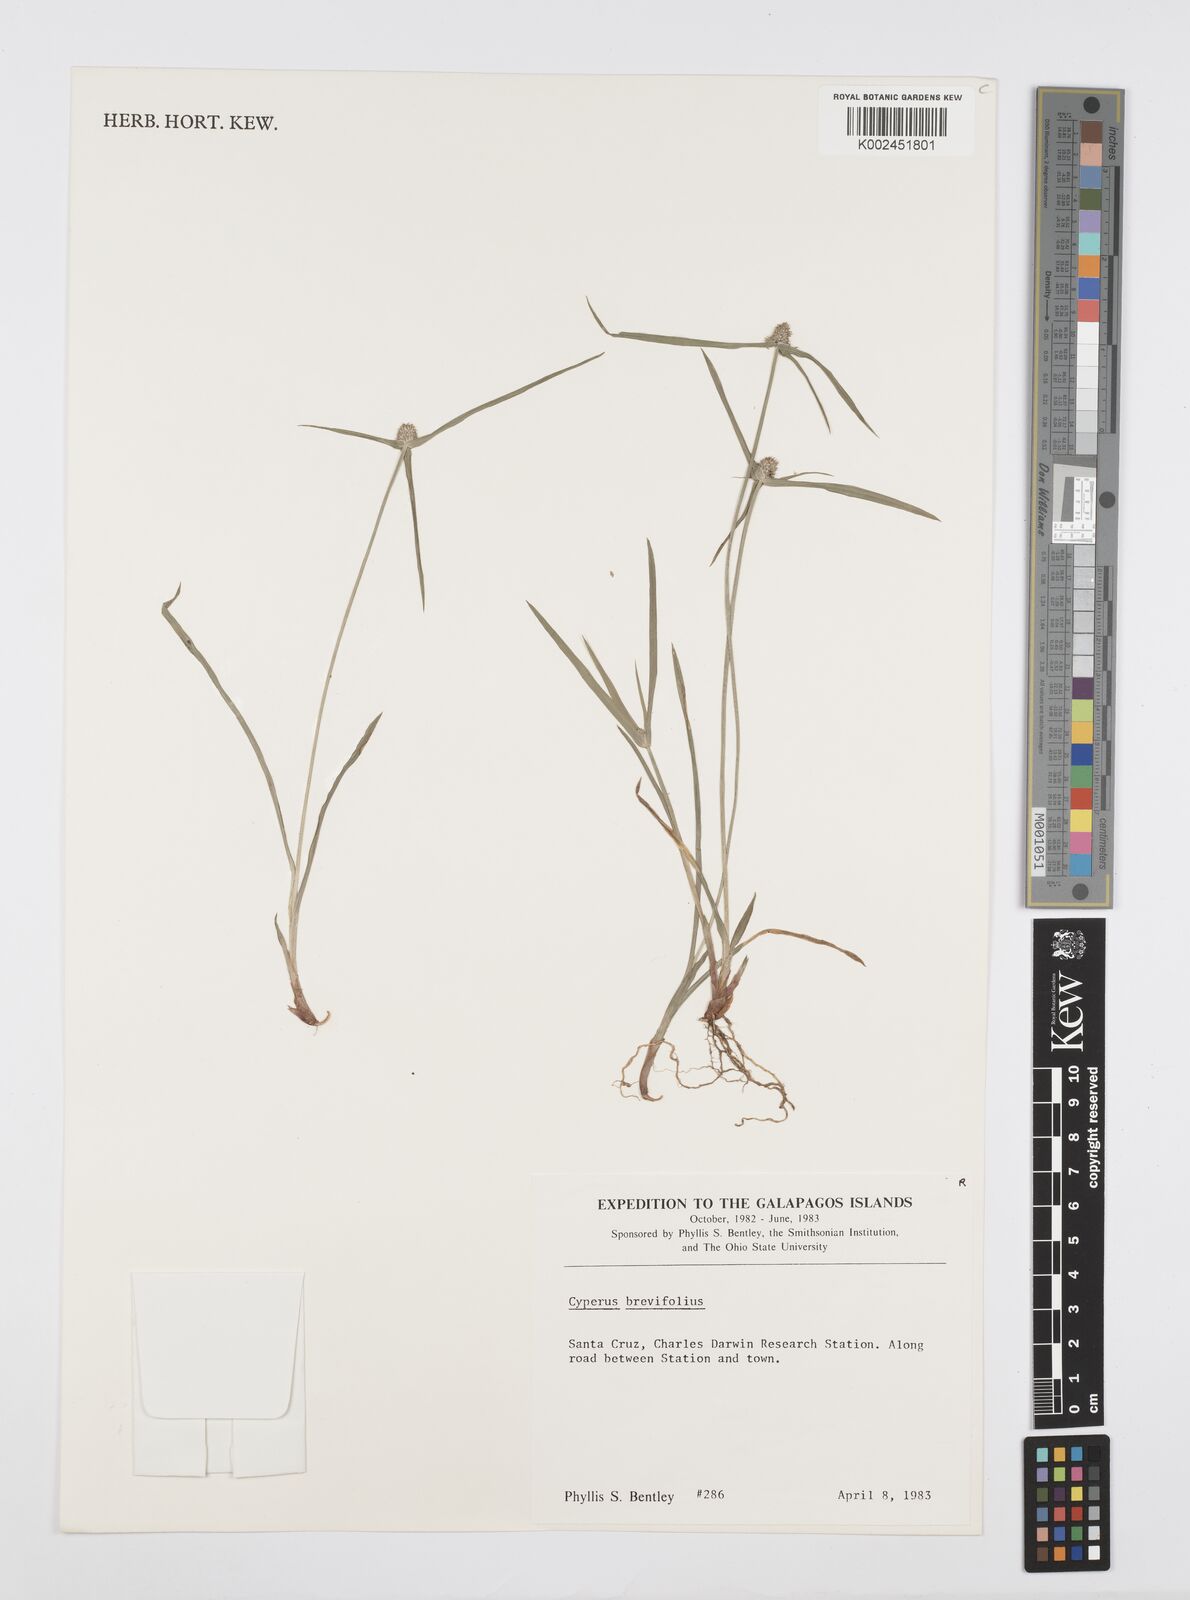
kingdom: Plantae
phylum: Tracheophyta
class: Liliopsida
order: Poales
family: Cyperaceae
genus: Cyperus
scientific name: Cyperus brevifolius
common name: Globe kyllinga
